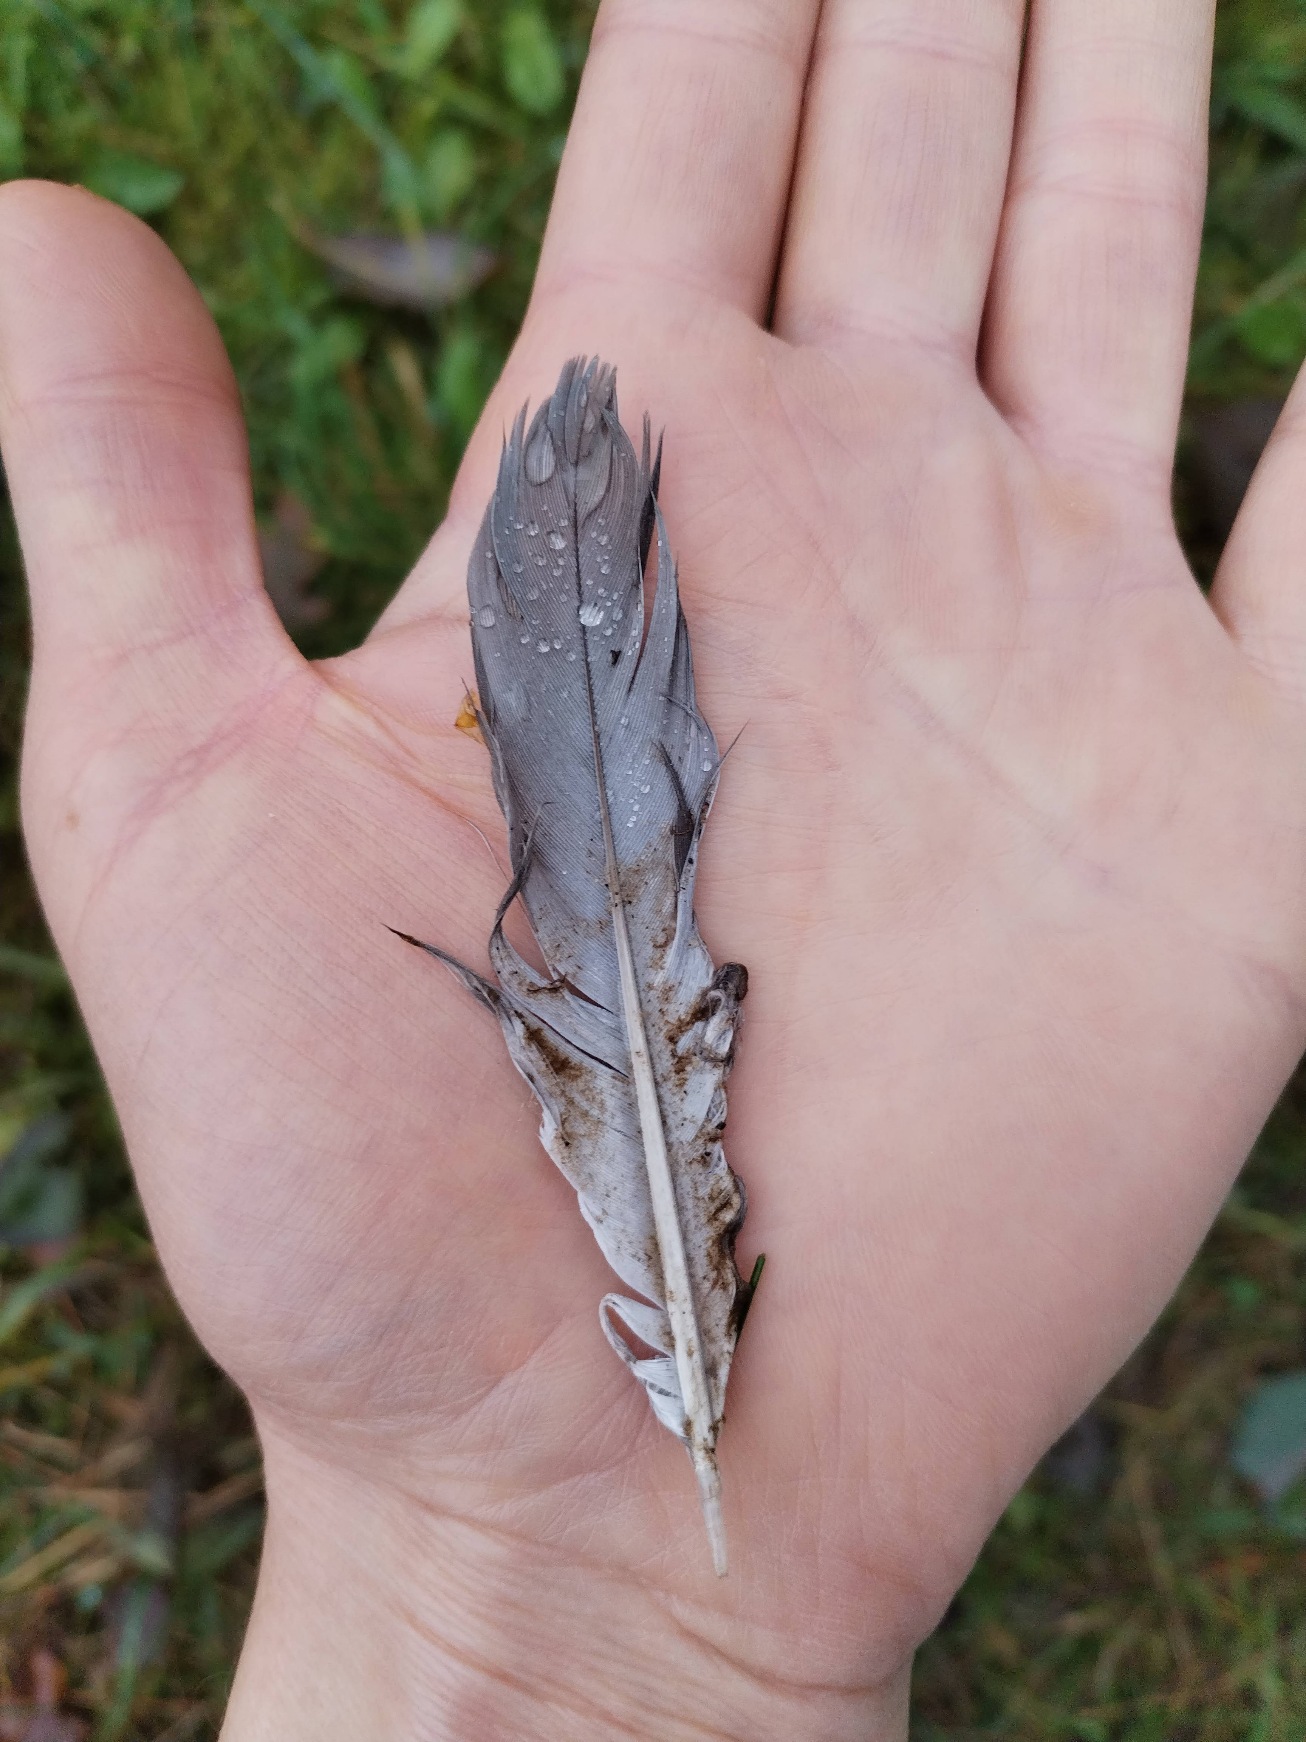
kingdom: Animalia
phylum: Chordata
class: Aves
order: Columbiformes
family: Columbidae
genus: Columba
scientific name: Columba palumbus
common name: Ringdue
